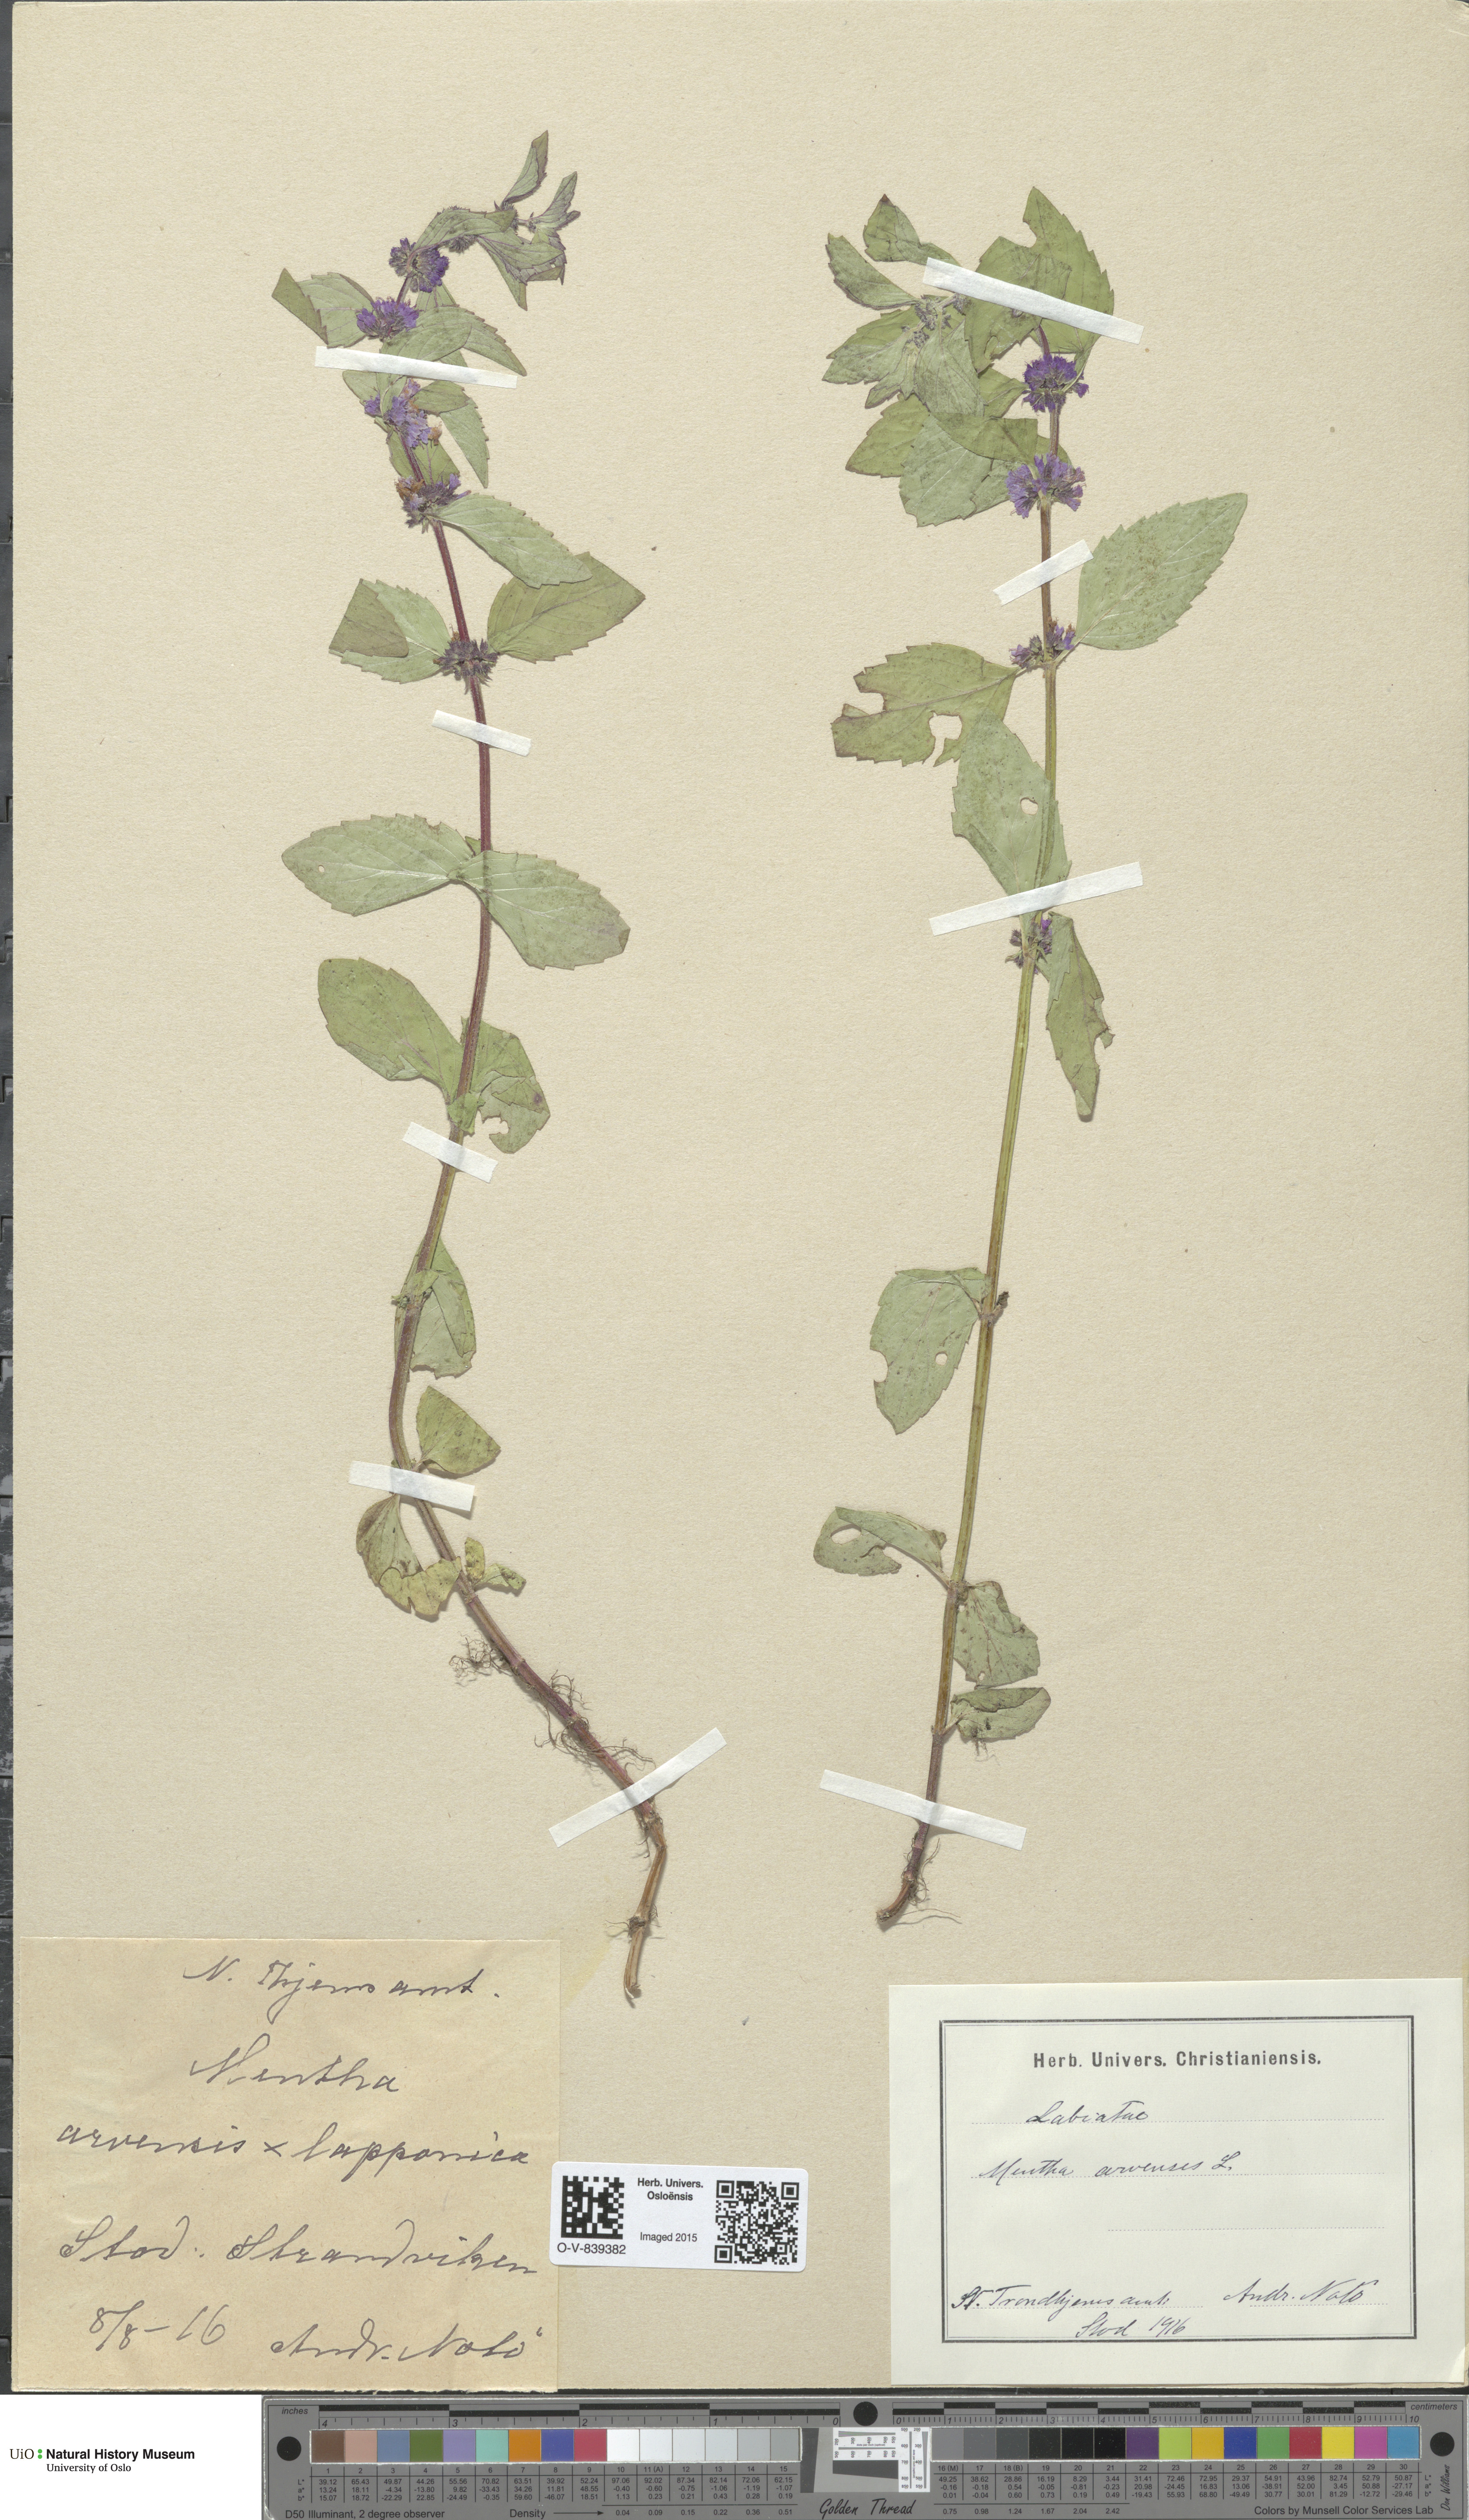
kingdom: Plantae
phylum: Tracheophyta
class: Magnoliopsida
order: Lamiales
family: Lamiaceae
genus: Mentha
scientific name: Mentha arvensis
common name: Corn mint
